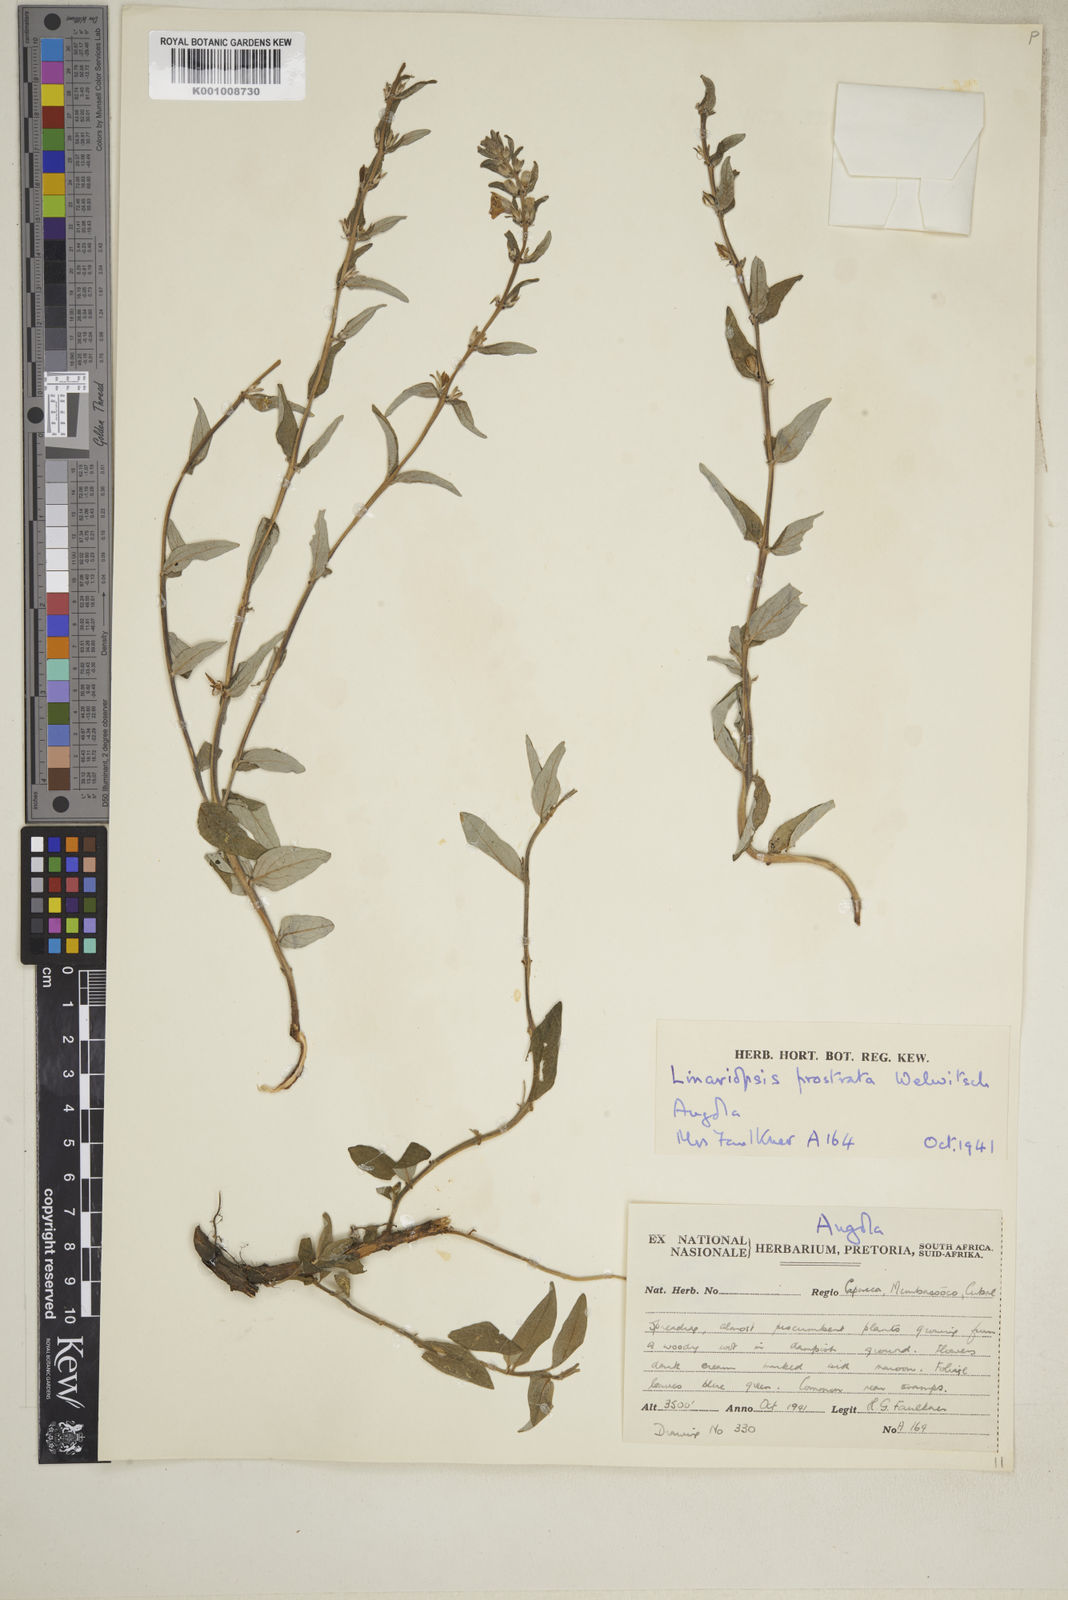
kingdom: Plantae
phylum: Tracheophyta
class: Magnoliopsida
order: Lamiales
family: Pedaliaceae
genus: Linariopsis
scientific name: Linariopsis prostrata
